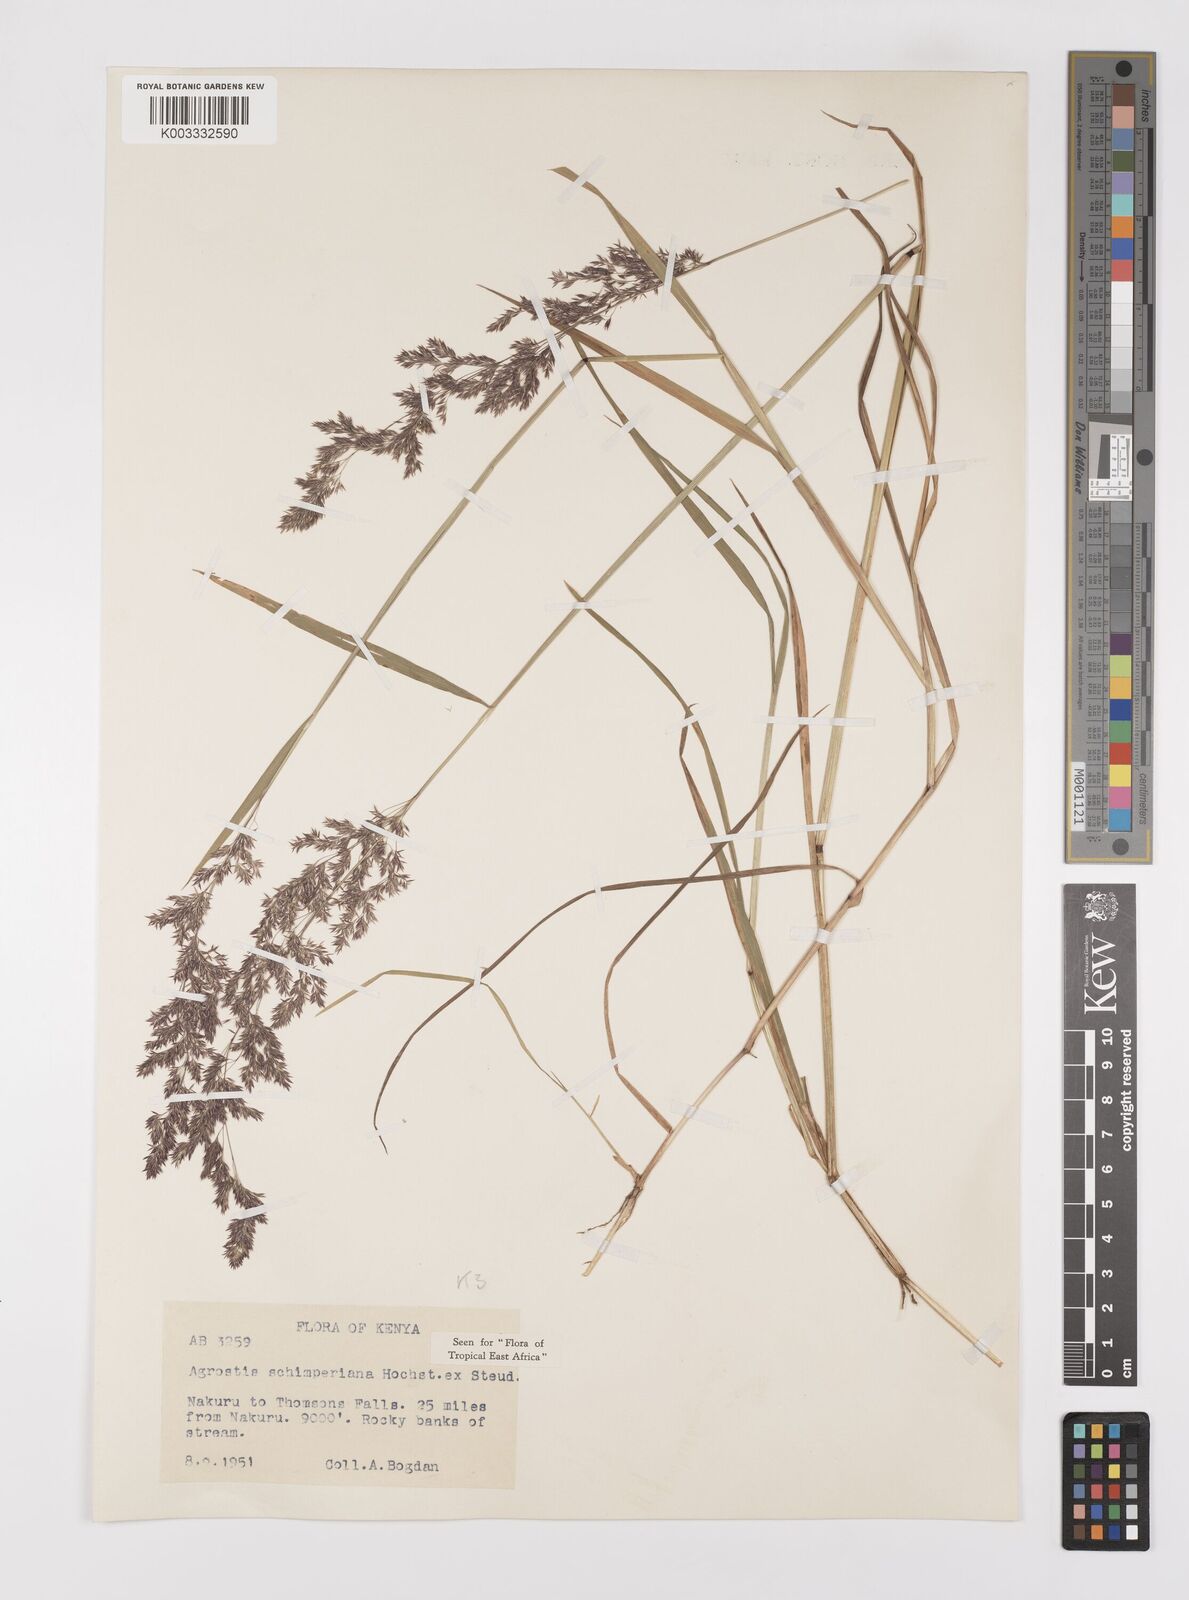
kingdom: Plantae
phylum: Tracheophyta
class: Liliopsida
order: Poales
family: Poaceae
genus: Polypogon
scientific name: Polypogon schimperianus
